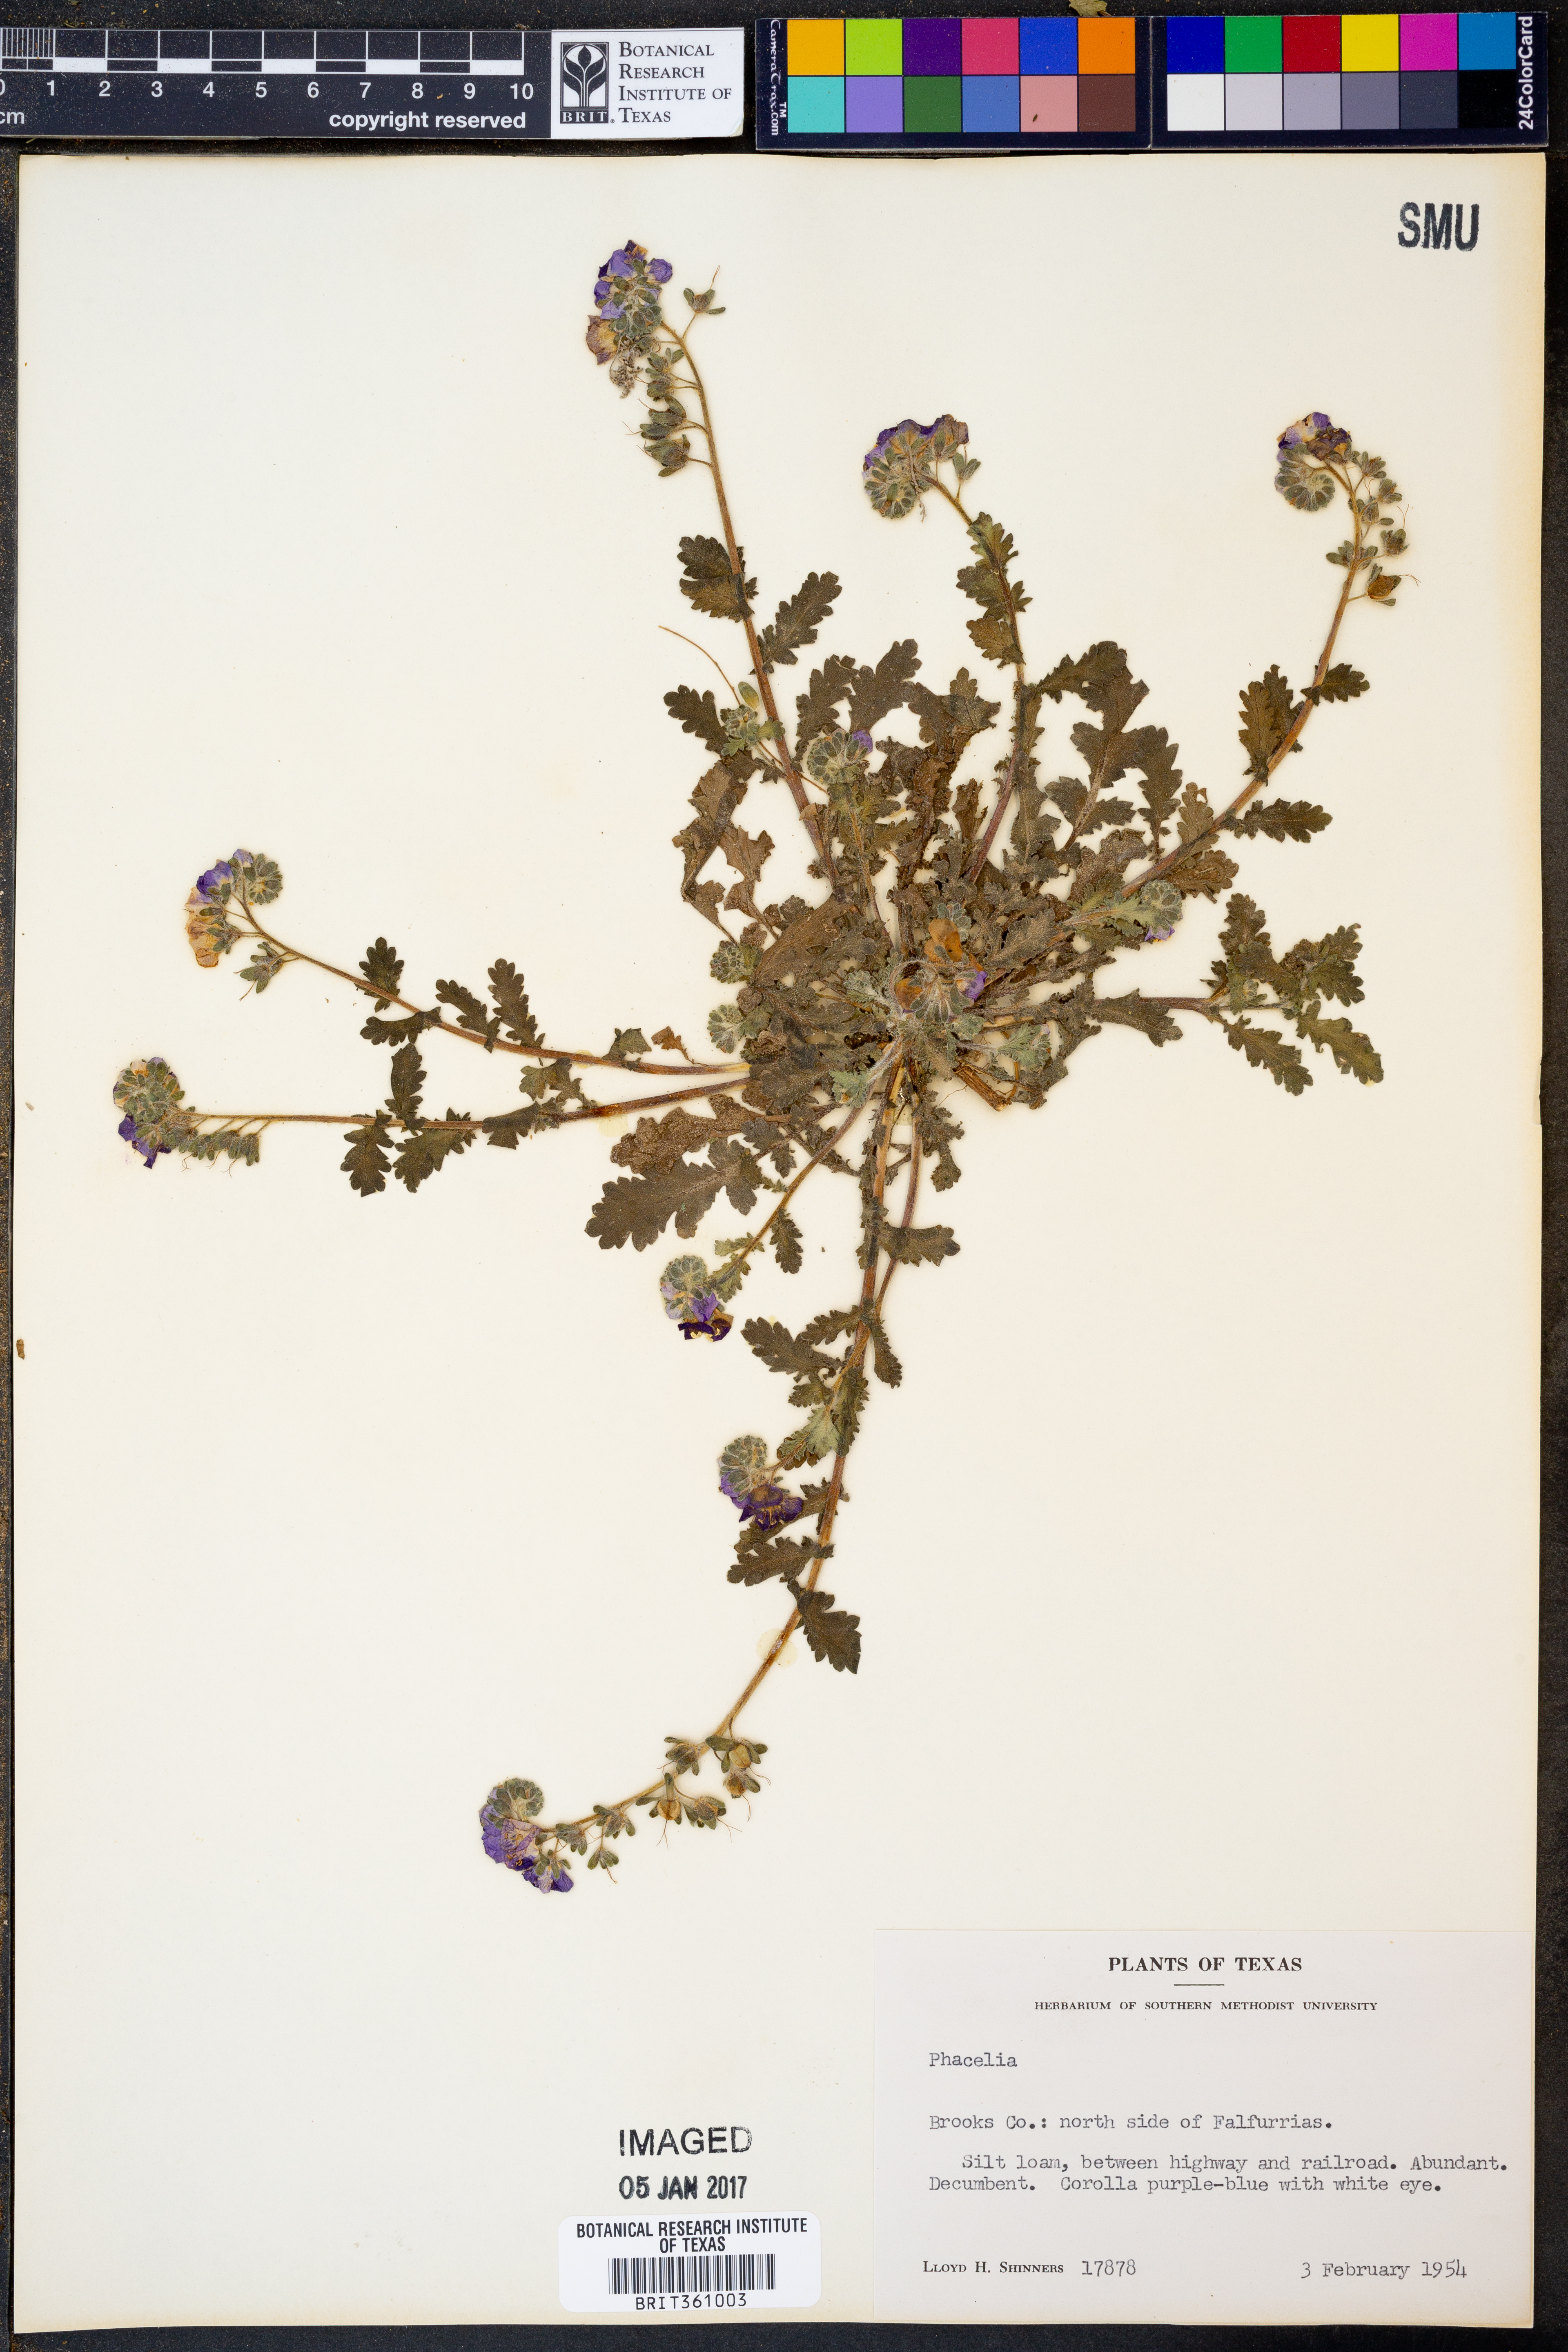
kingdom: Plantae
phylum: Tracheophyta
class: Magnoliopsida
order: Boraginales
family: Hydrophyllaceae
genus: Phacelia
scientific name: Phacelia
